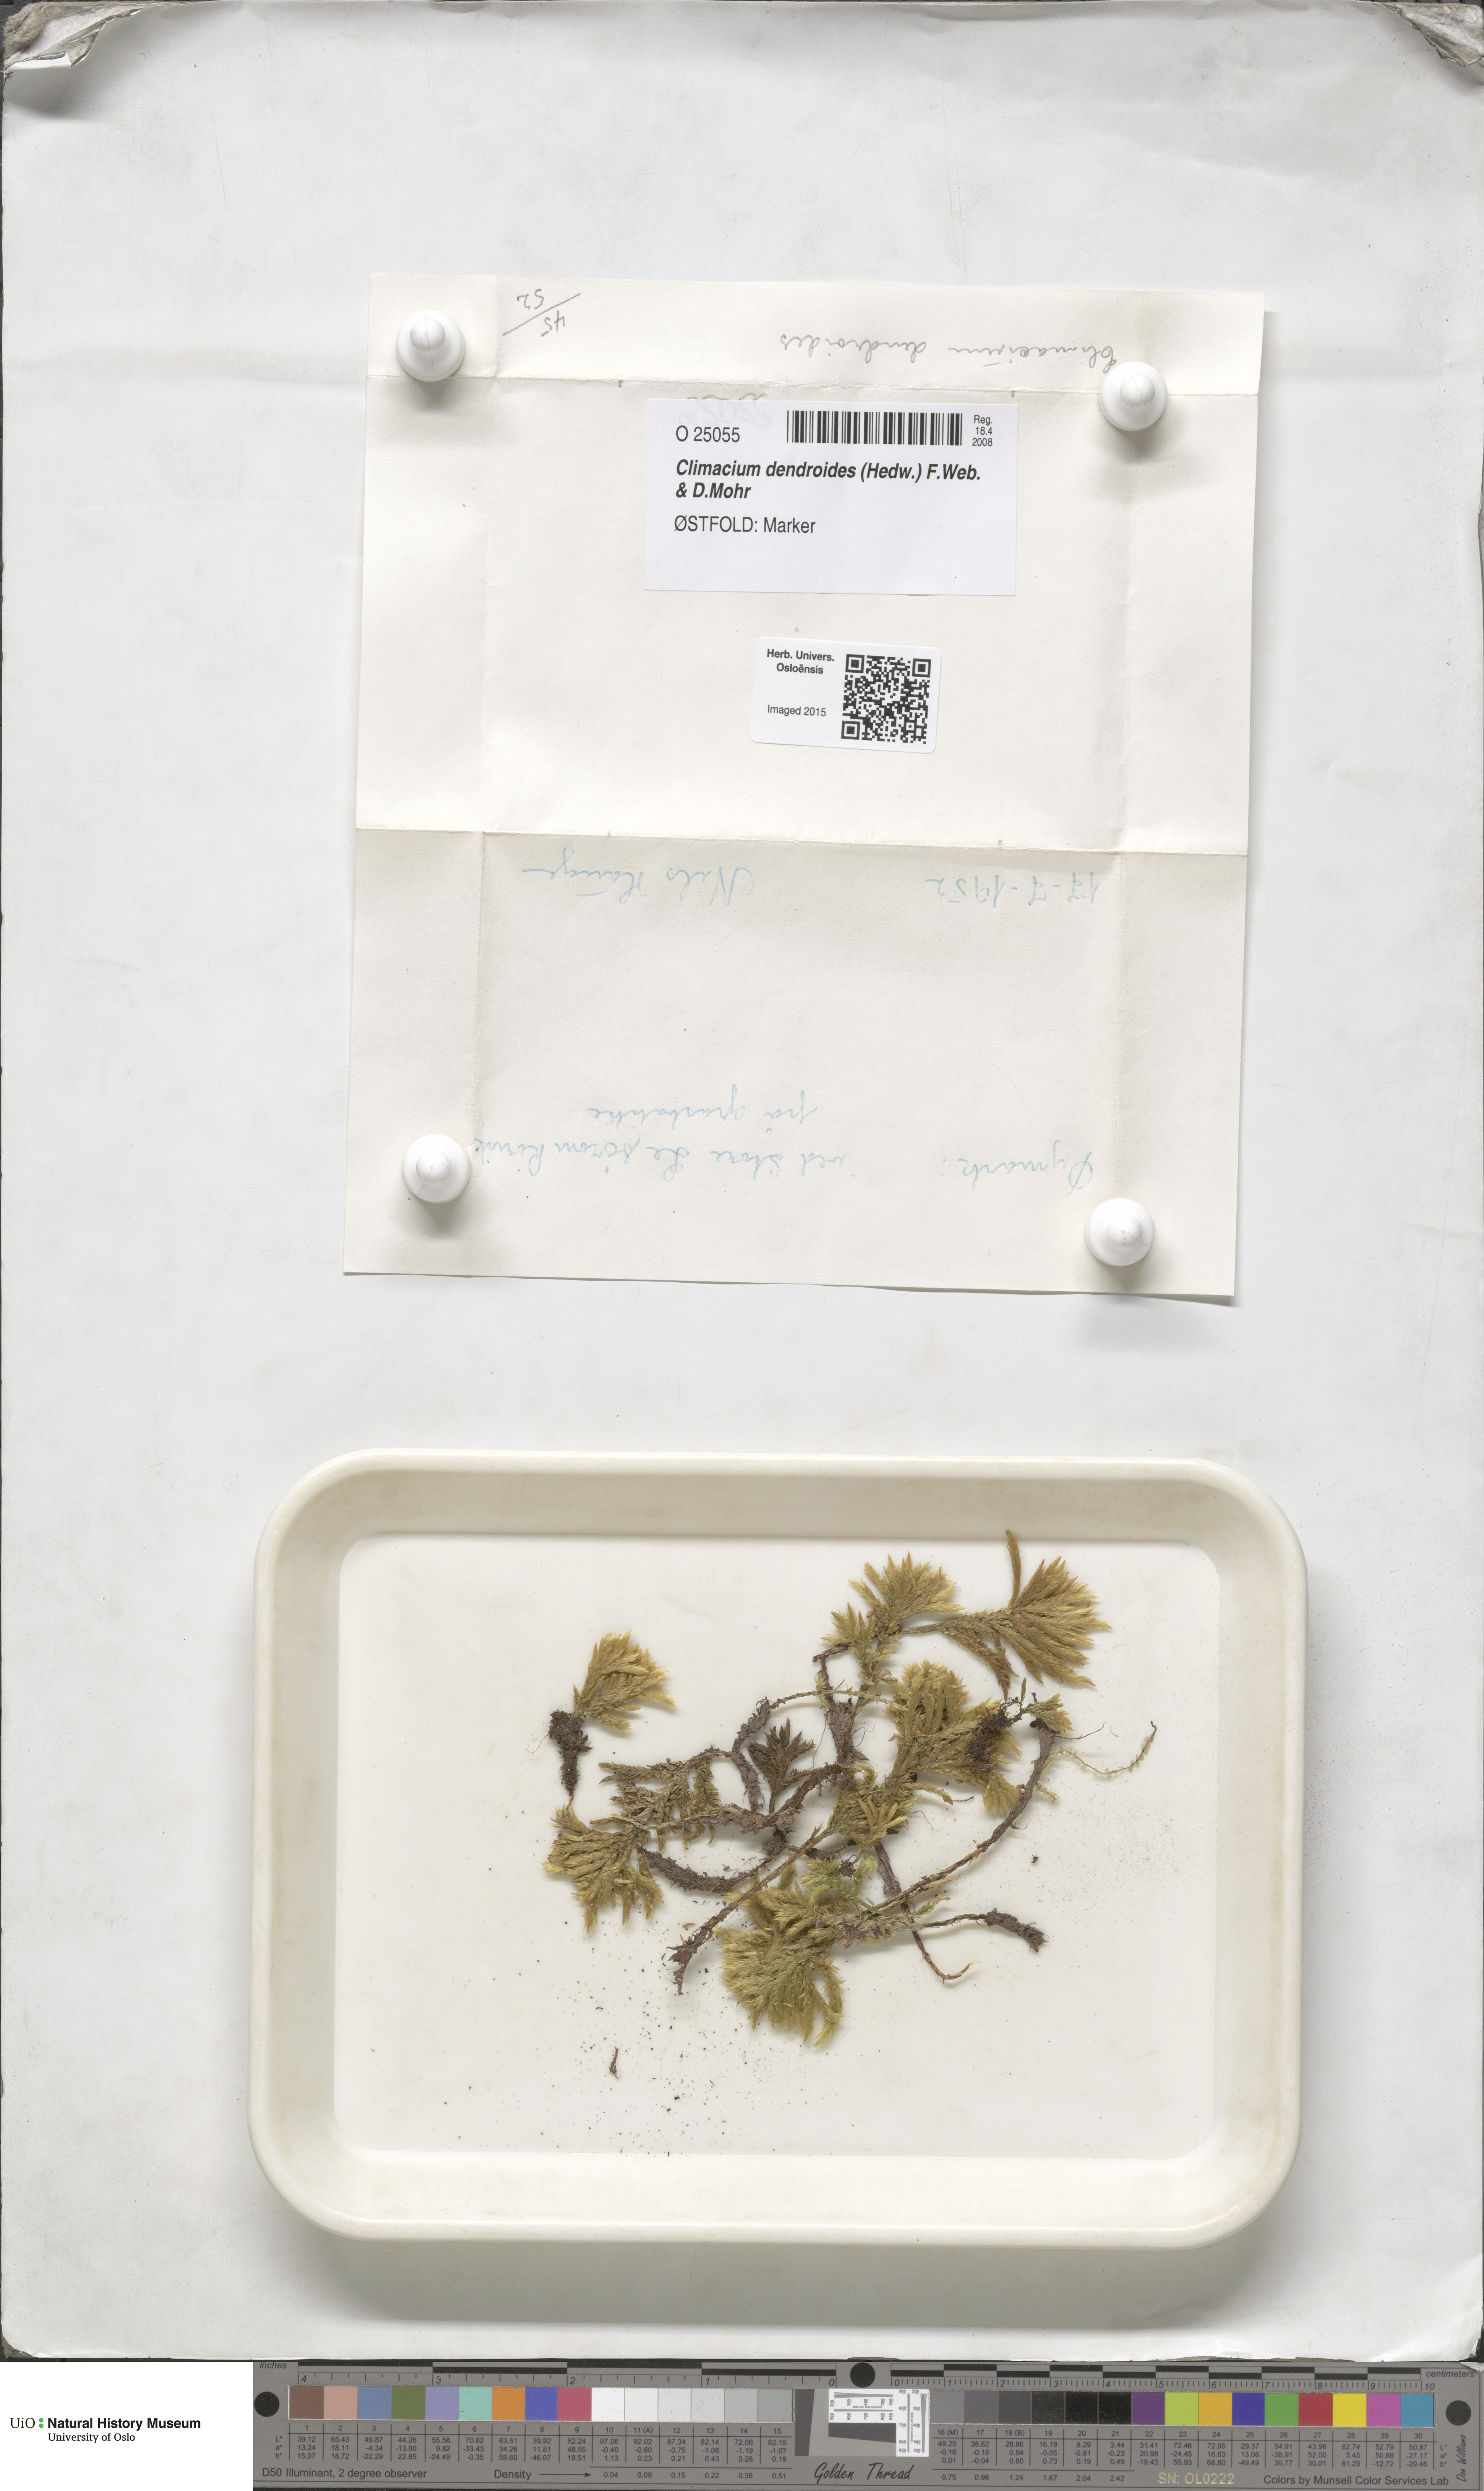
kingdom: Plantae
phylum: Bryophyta
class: Bryopsida
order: Hypnales
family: Climaciaceae
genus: Climacium
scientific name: Climacium dendroides
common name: Northern tree moss
